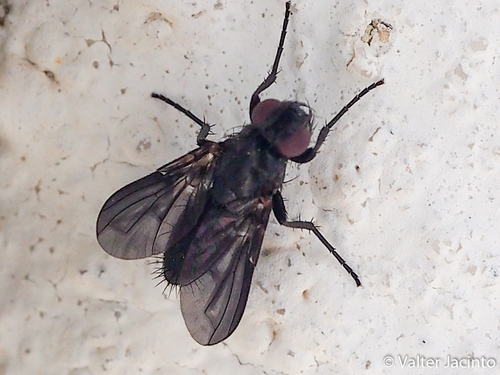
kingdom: Animalia
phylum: Arthropoda
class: Insecta
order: Diptera
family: Calliphoridae
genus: Melanophora
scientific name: Melanophora roralis
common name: Smoky-winged woodlouse-fly
